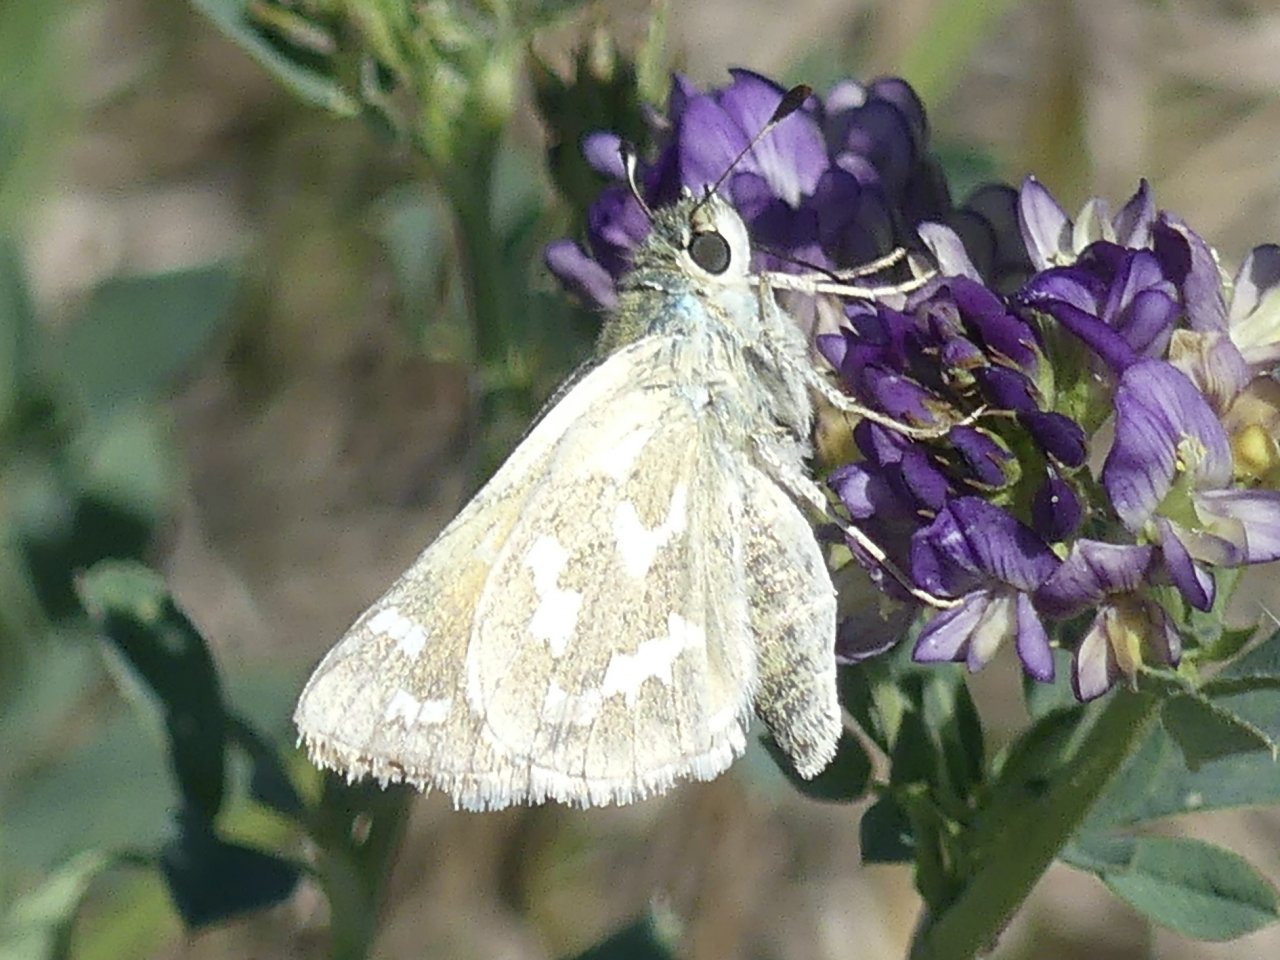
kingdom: Animalia
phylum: Arthropoda
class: Insecta
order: Lepidoptera
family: Hesperiidae
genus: Hesperia
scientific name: Hesperia comma
